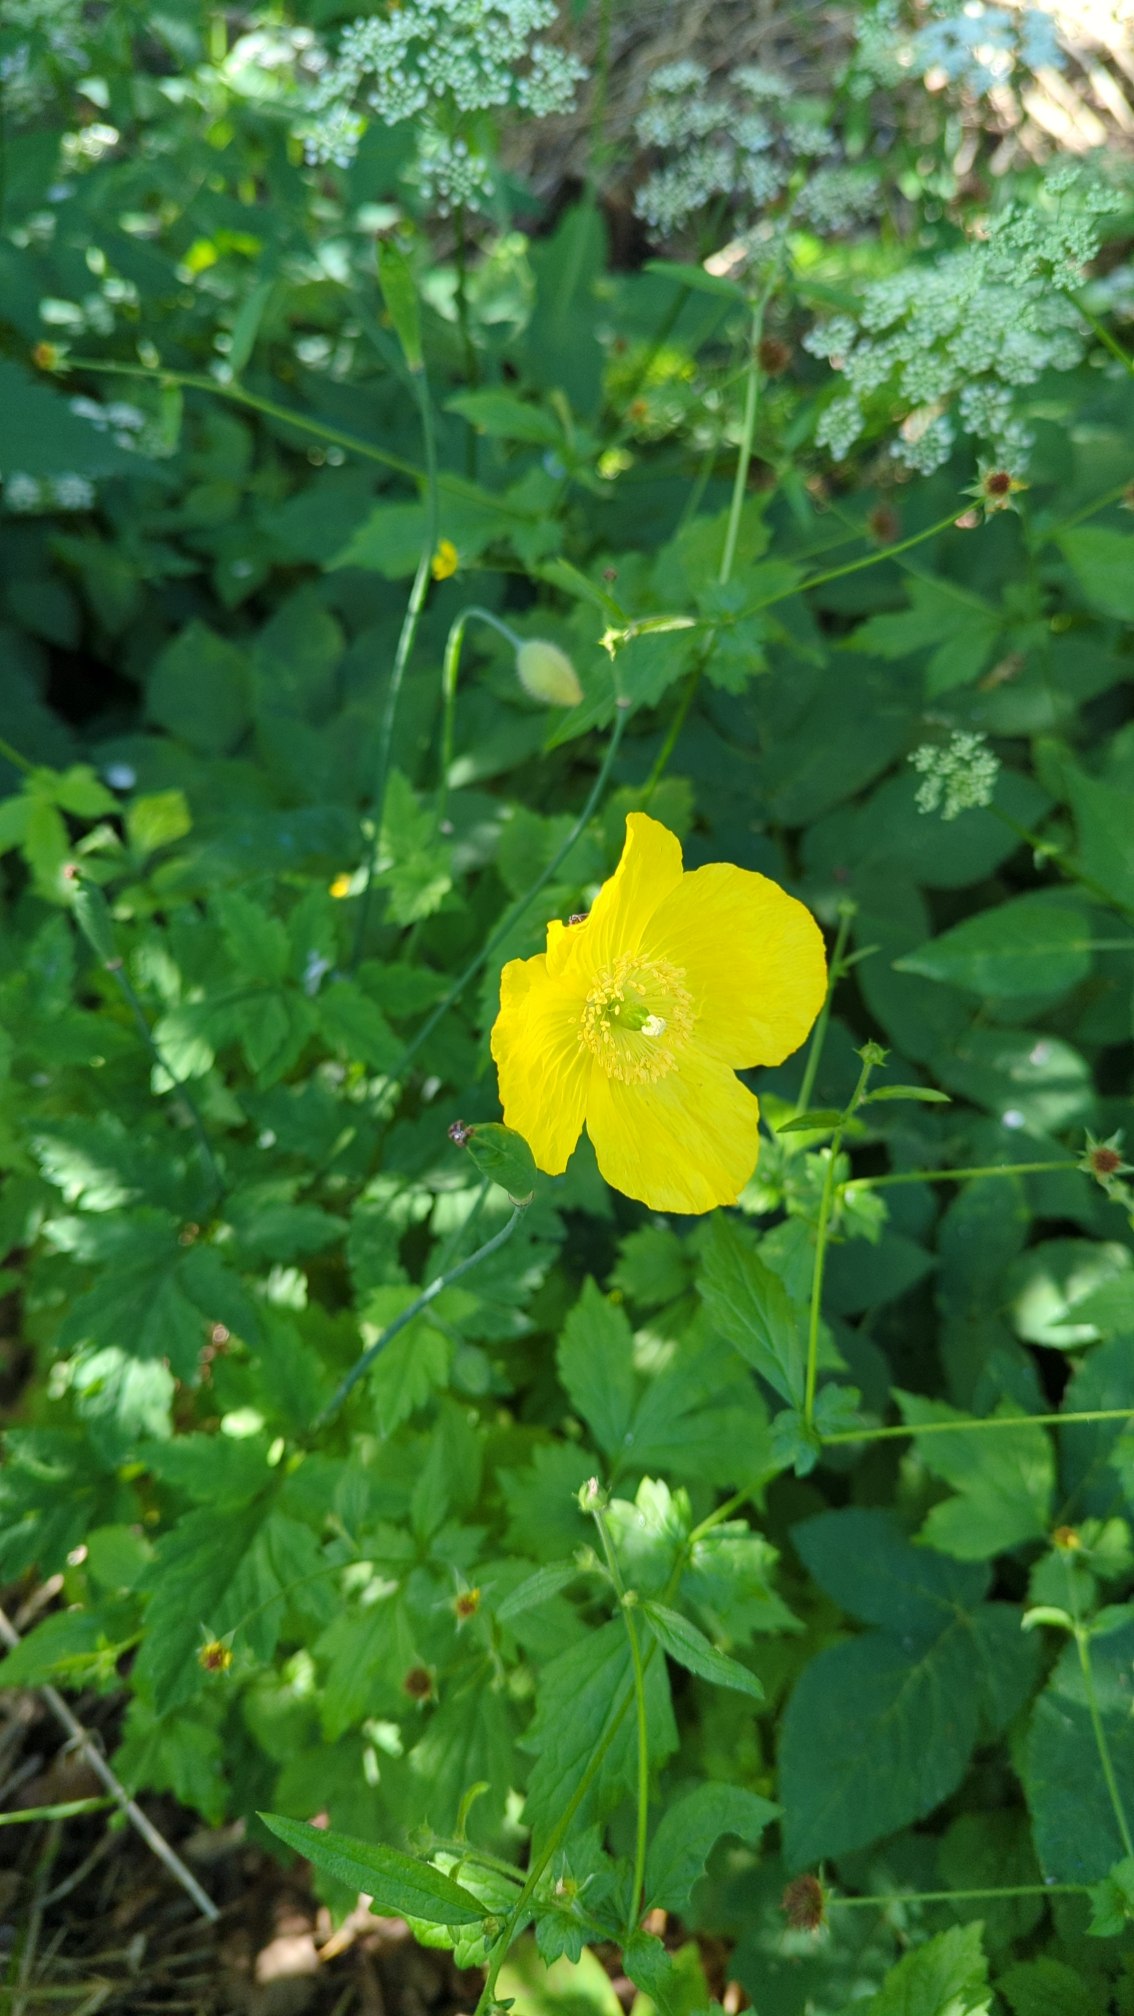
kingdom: Plantae
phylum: Tracheophyta
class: Magnoliopsida
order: Ranunculales
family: Papaveraceae
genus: Papaver
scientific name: Papaver cambricum
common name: Skov-valmue
